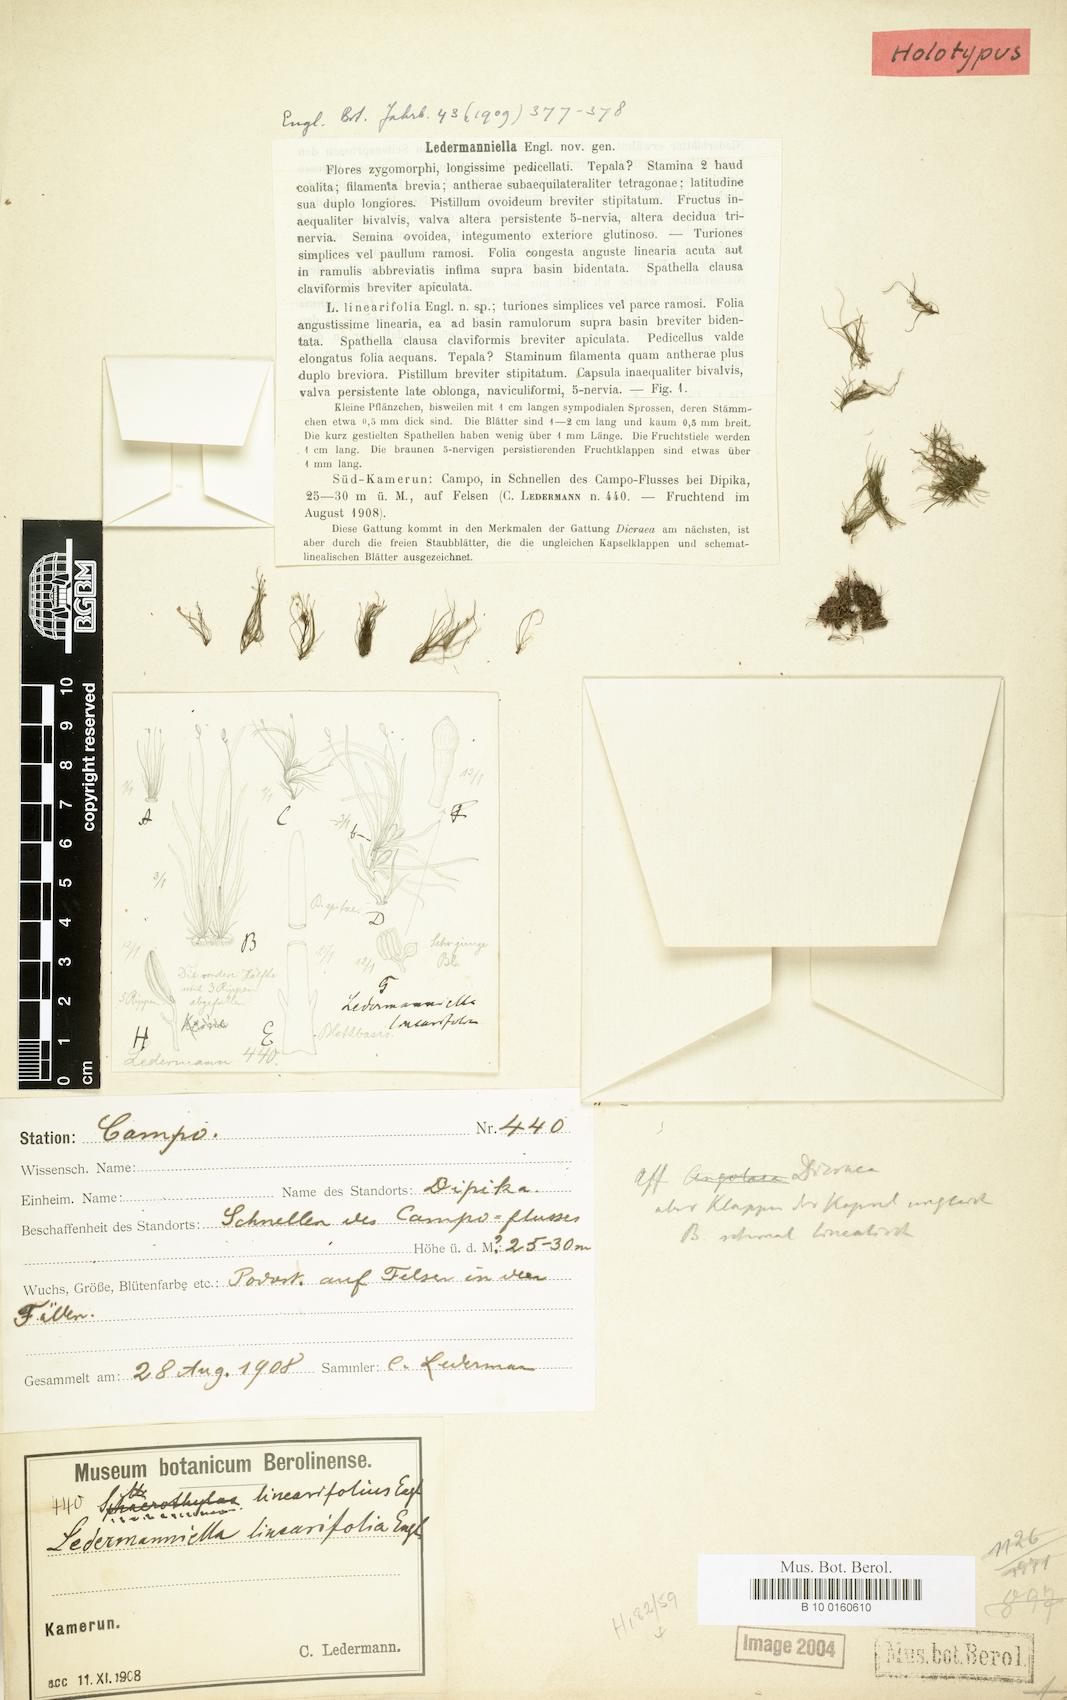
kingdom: Plantae
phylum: Tracheophyta
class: Magnoliopsida
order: Malpighiales
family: Podostemaceae
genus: Ledermanniella
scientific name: Ledermanniella linearifolia
